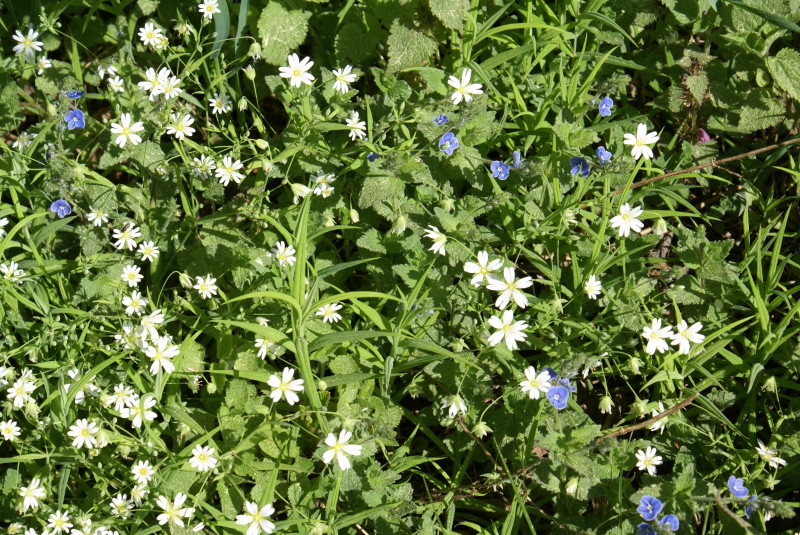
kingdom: Plantae
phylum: Tracheophyta
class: Magnoliopsida
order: Caryophyllales
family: Caryophyllaceae
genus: Rabelera
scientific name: Rabelera holostea
